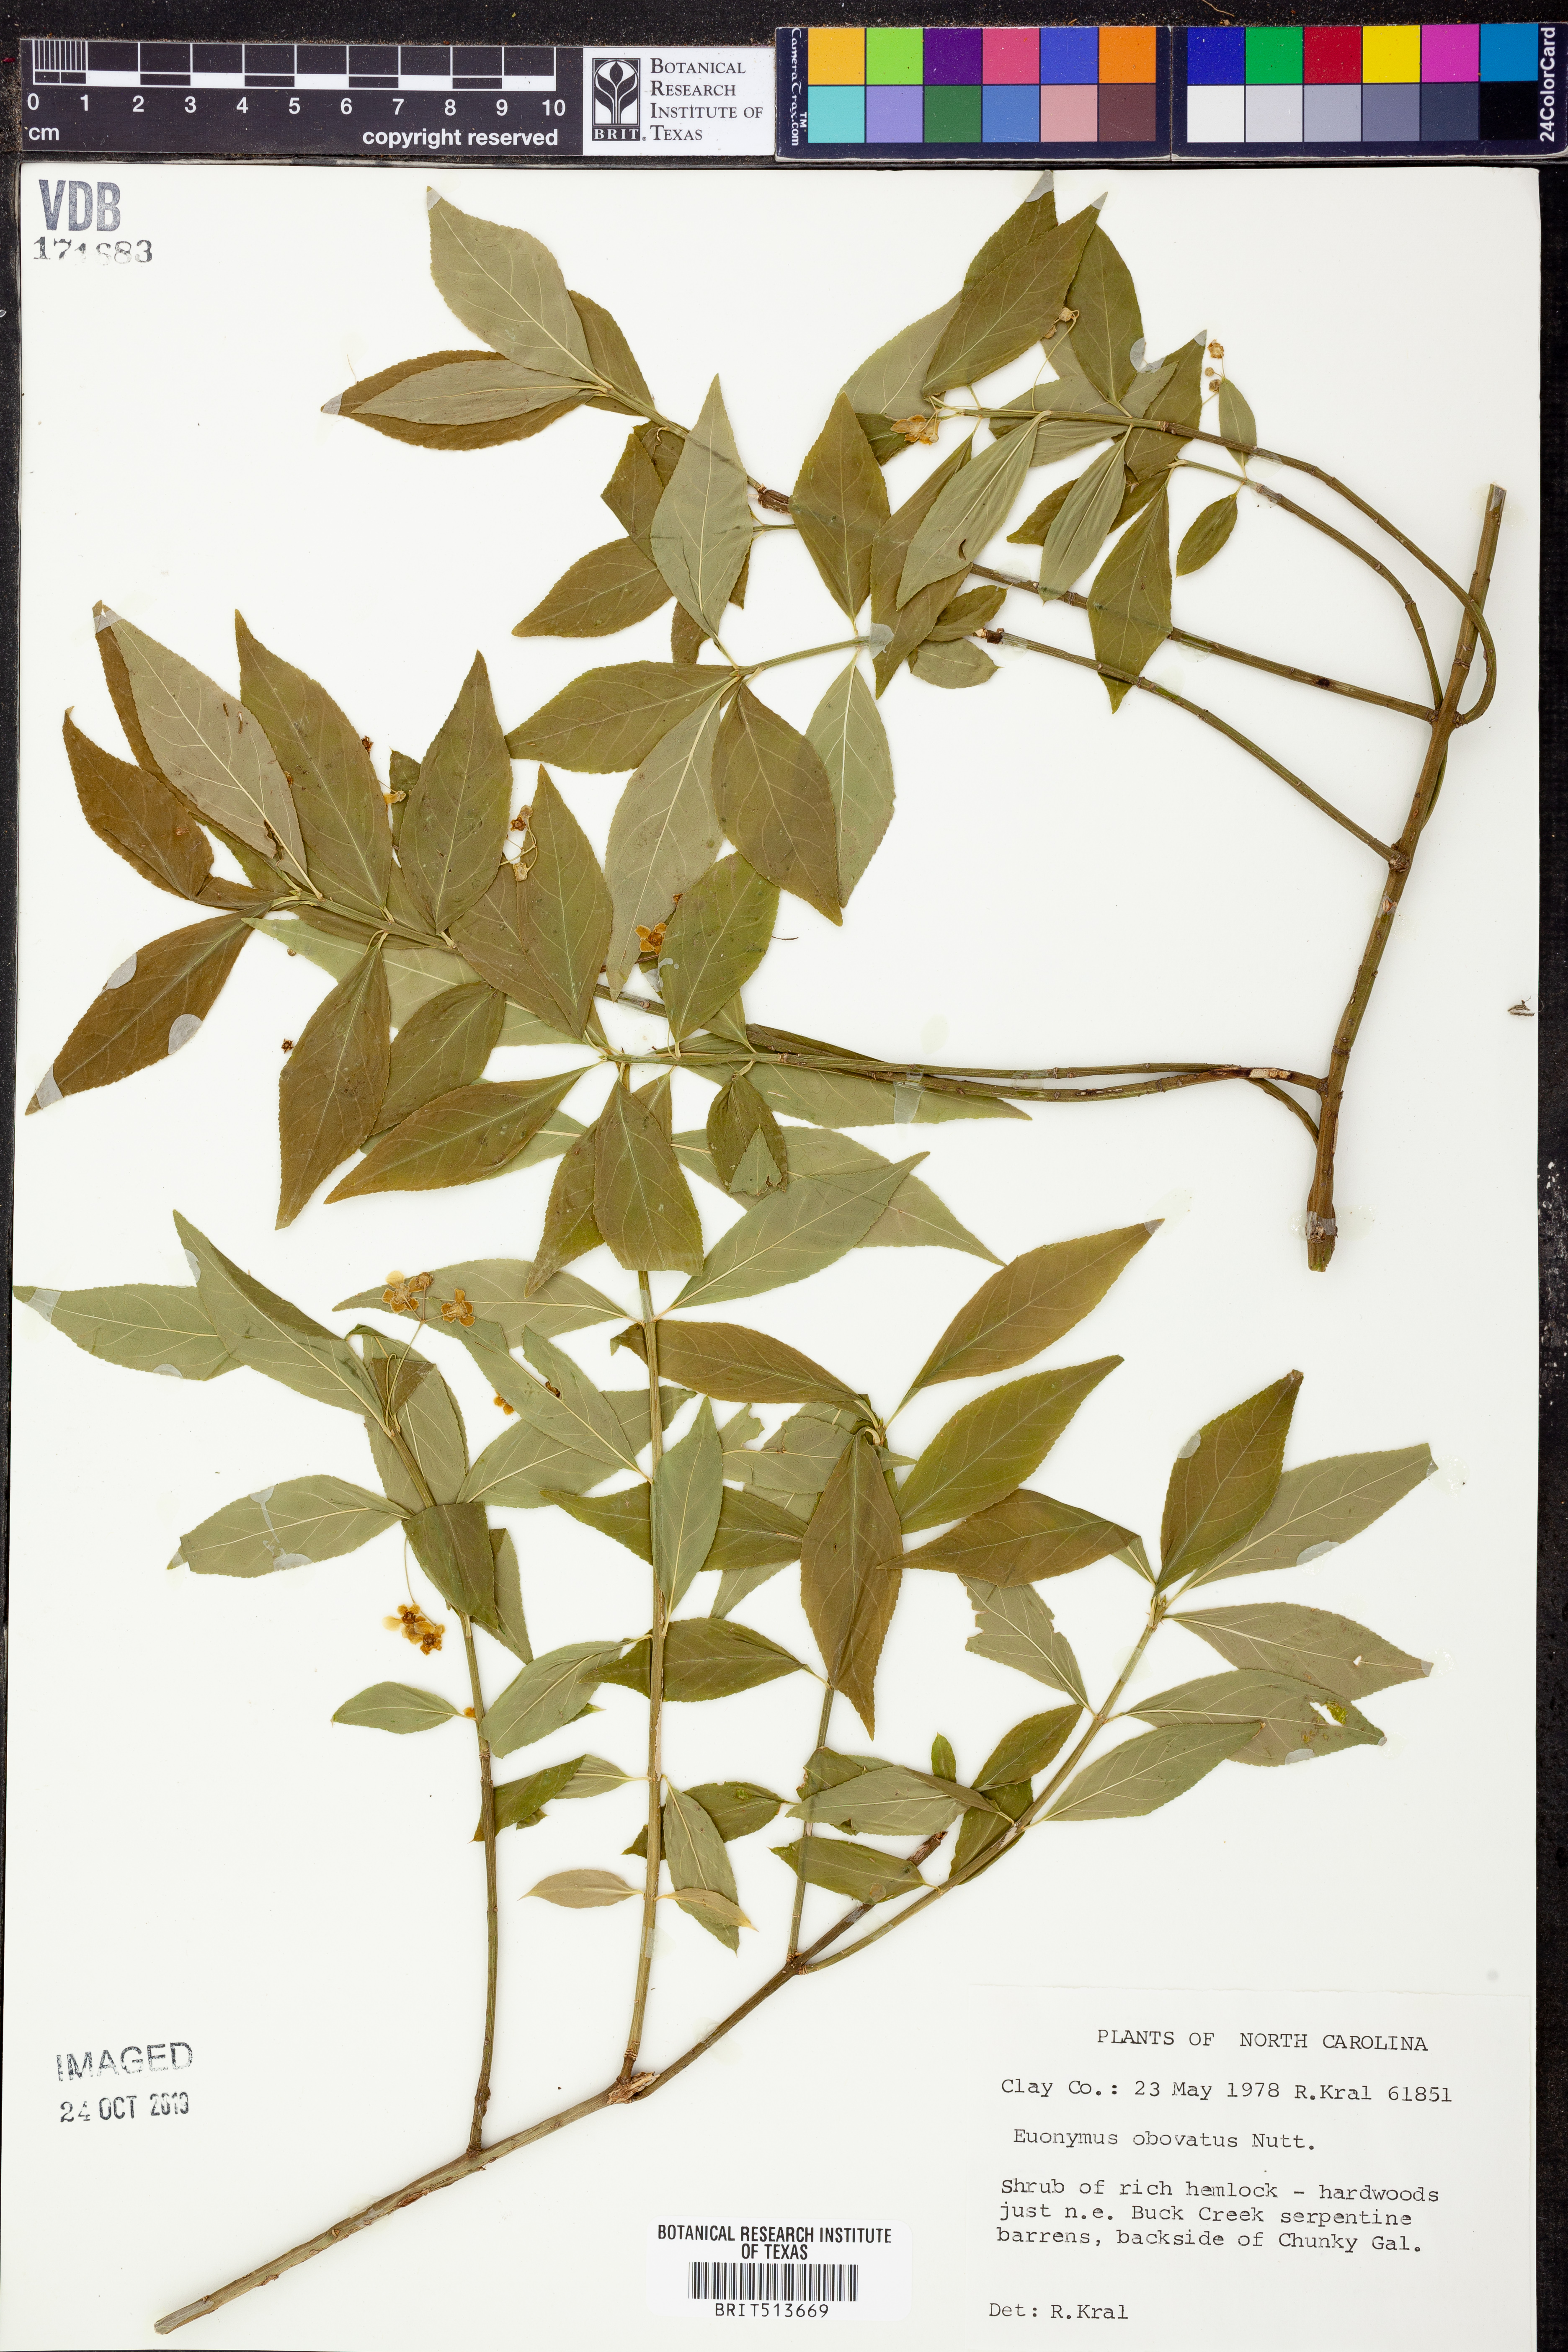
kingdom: Plantae
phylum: Tracheophyta
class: Magnoliopsida
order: Celastrales
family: Celastraceae
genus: Euonymus
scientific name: Euonymus obovatus
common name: Running strawberry-bush
